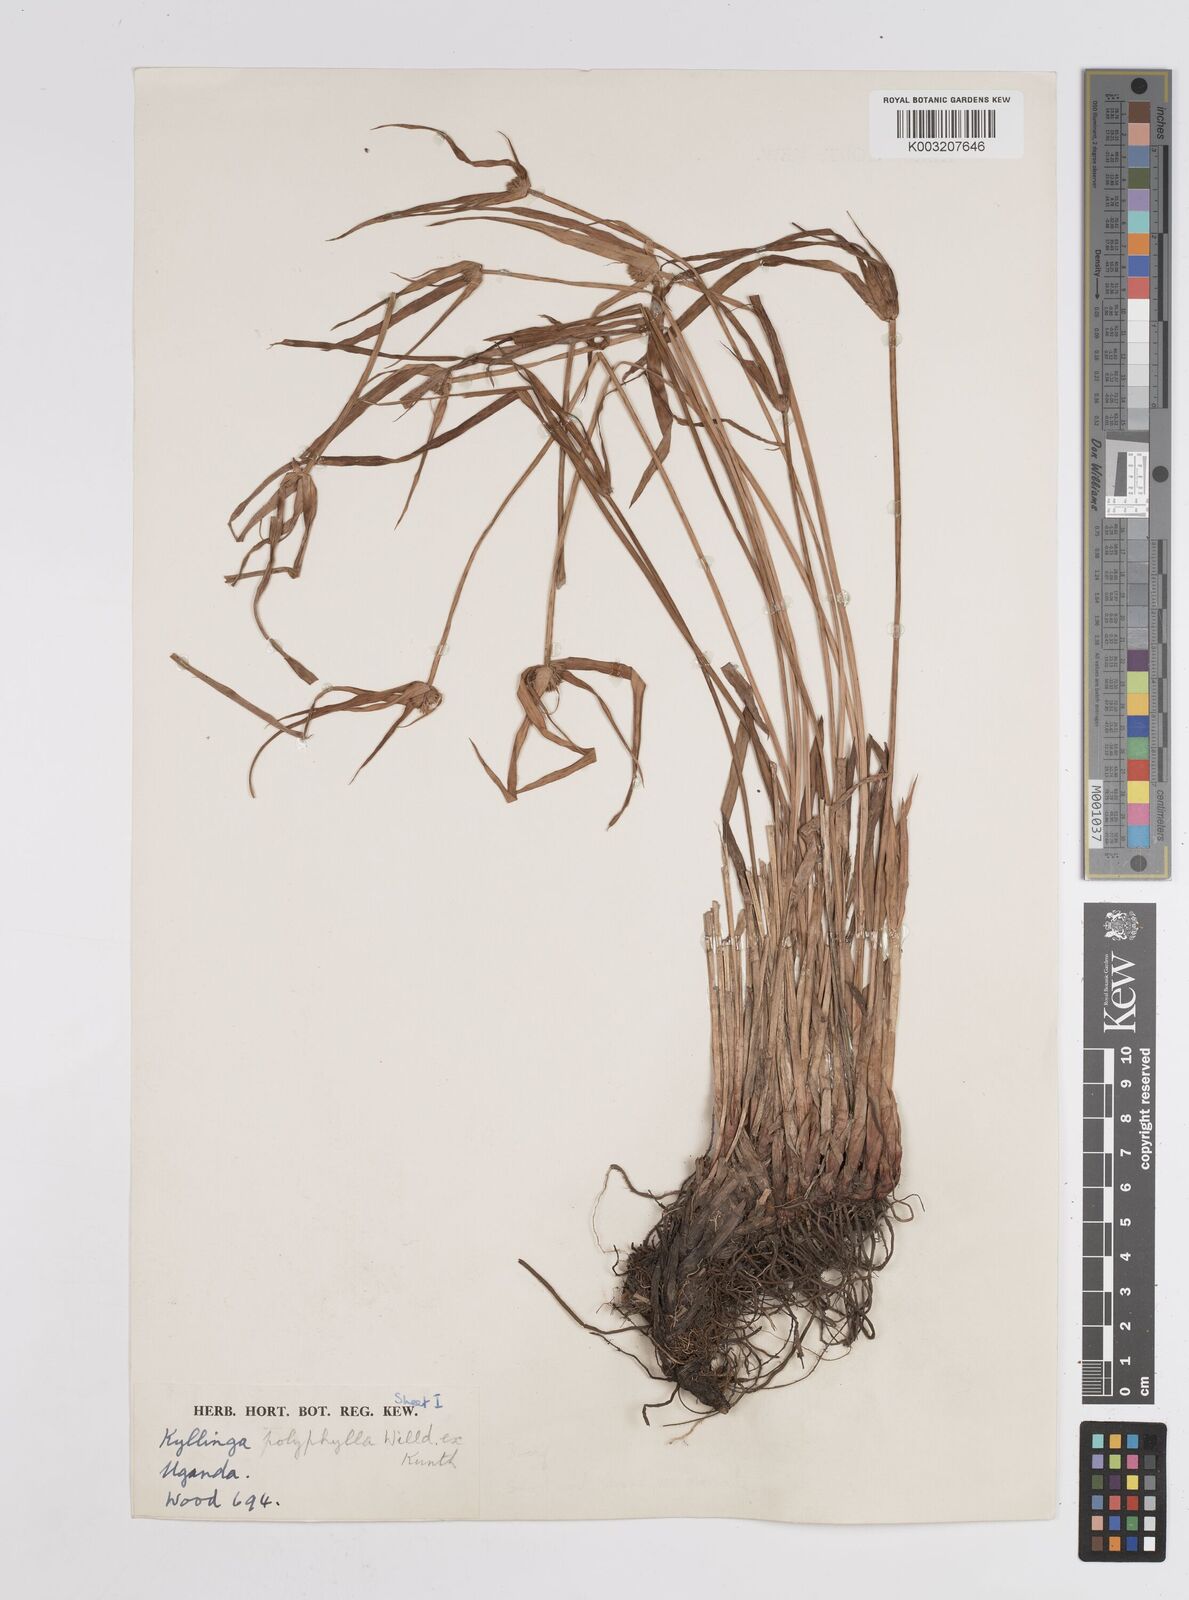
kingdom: Plantae
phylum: Tracheophyta
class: Liliopsida
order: Poales
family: Cyperaceae
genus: Cyperus
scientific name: Cyperus melanospermus
